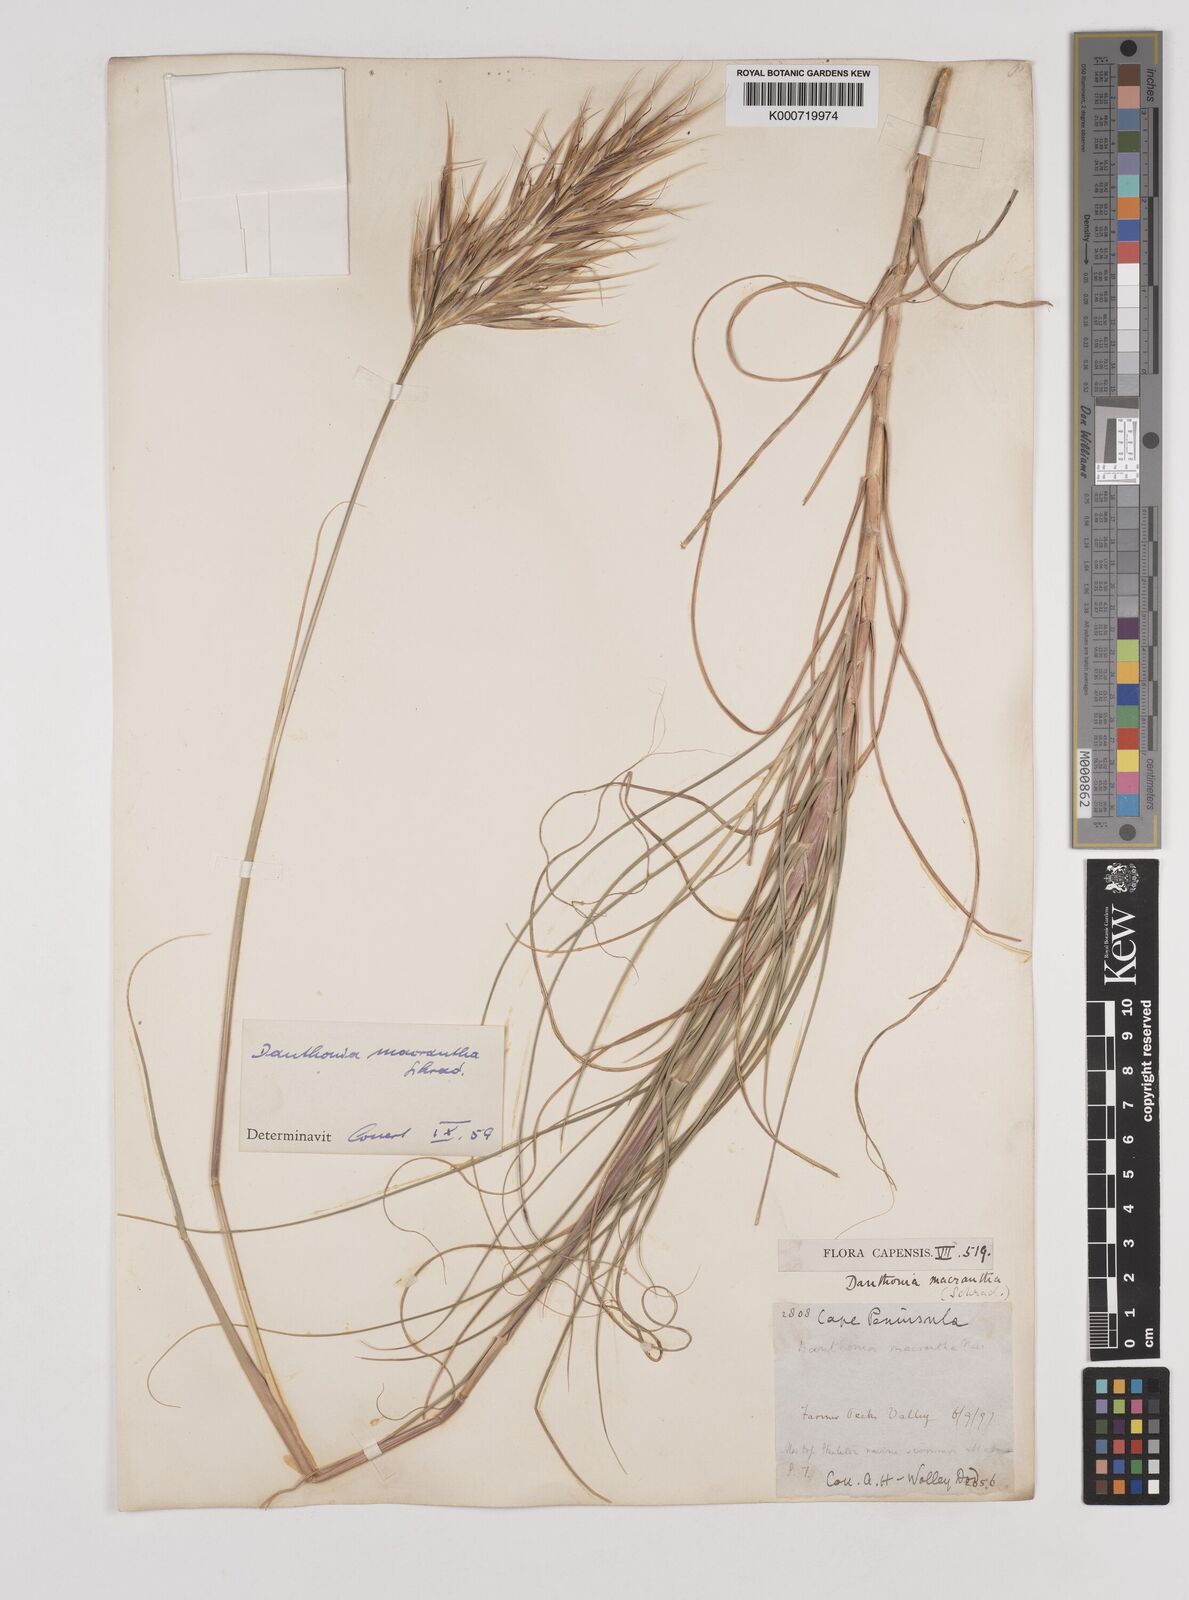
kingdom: Plantae
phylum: Tracheophyta
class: Liliopsida
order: Poales
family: Poaceae
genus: Pseudopentameris
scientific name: Pseudopentameris macrantha
